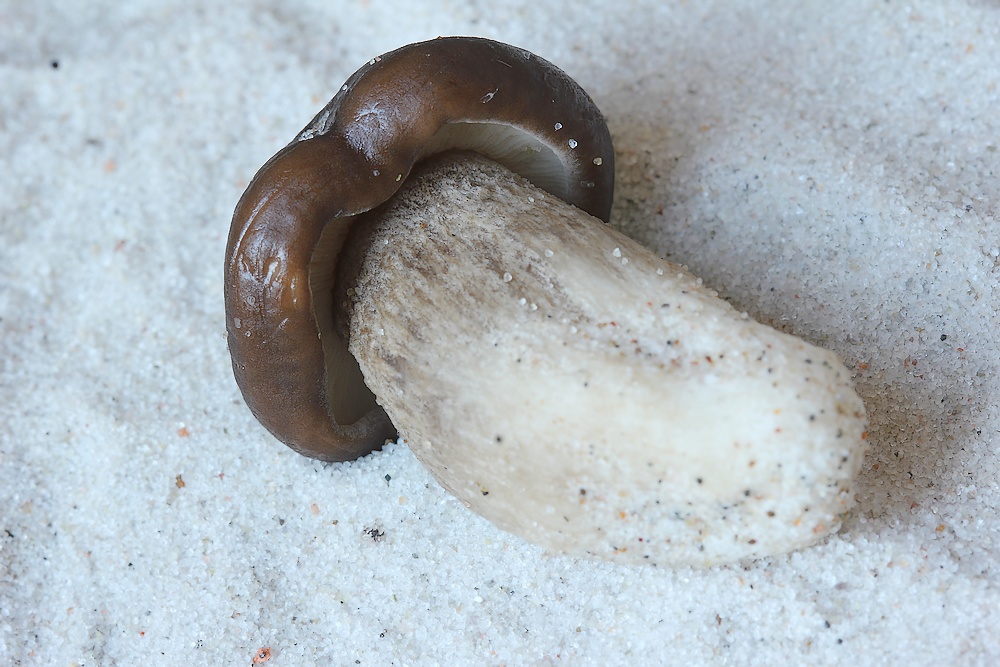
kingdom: Fungi
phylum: Basidiomycota
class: Agaricomycetes
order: Agaricales
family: Tricholomataceae
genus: Melanoleuca
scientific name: Melanoleuca ammophila
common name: gråbladet munkehat
